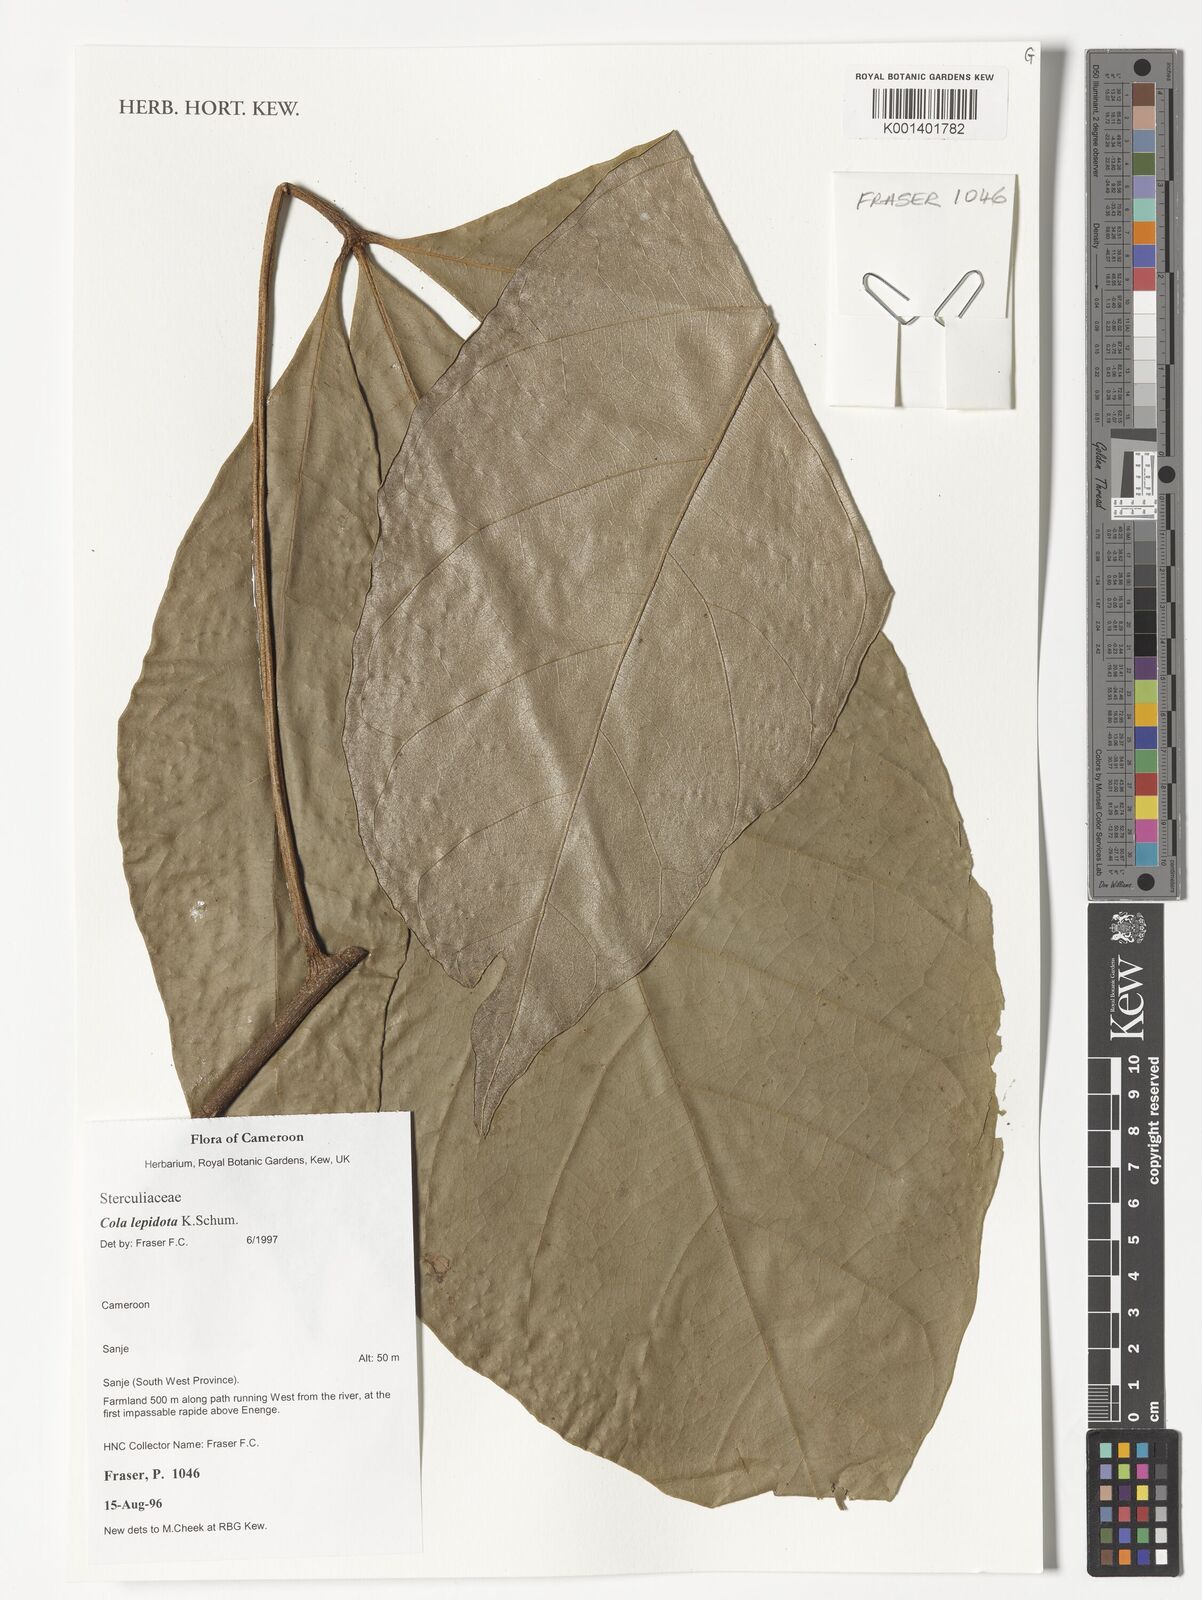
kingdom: Plantae
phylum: Tracheophyta
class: Magnoliopsida
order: Malvales
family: Malvaceae
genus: Cola
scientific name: Cola lepidota
